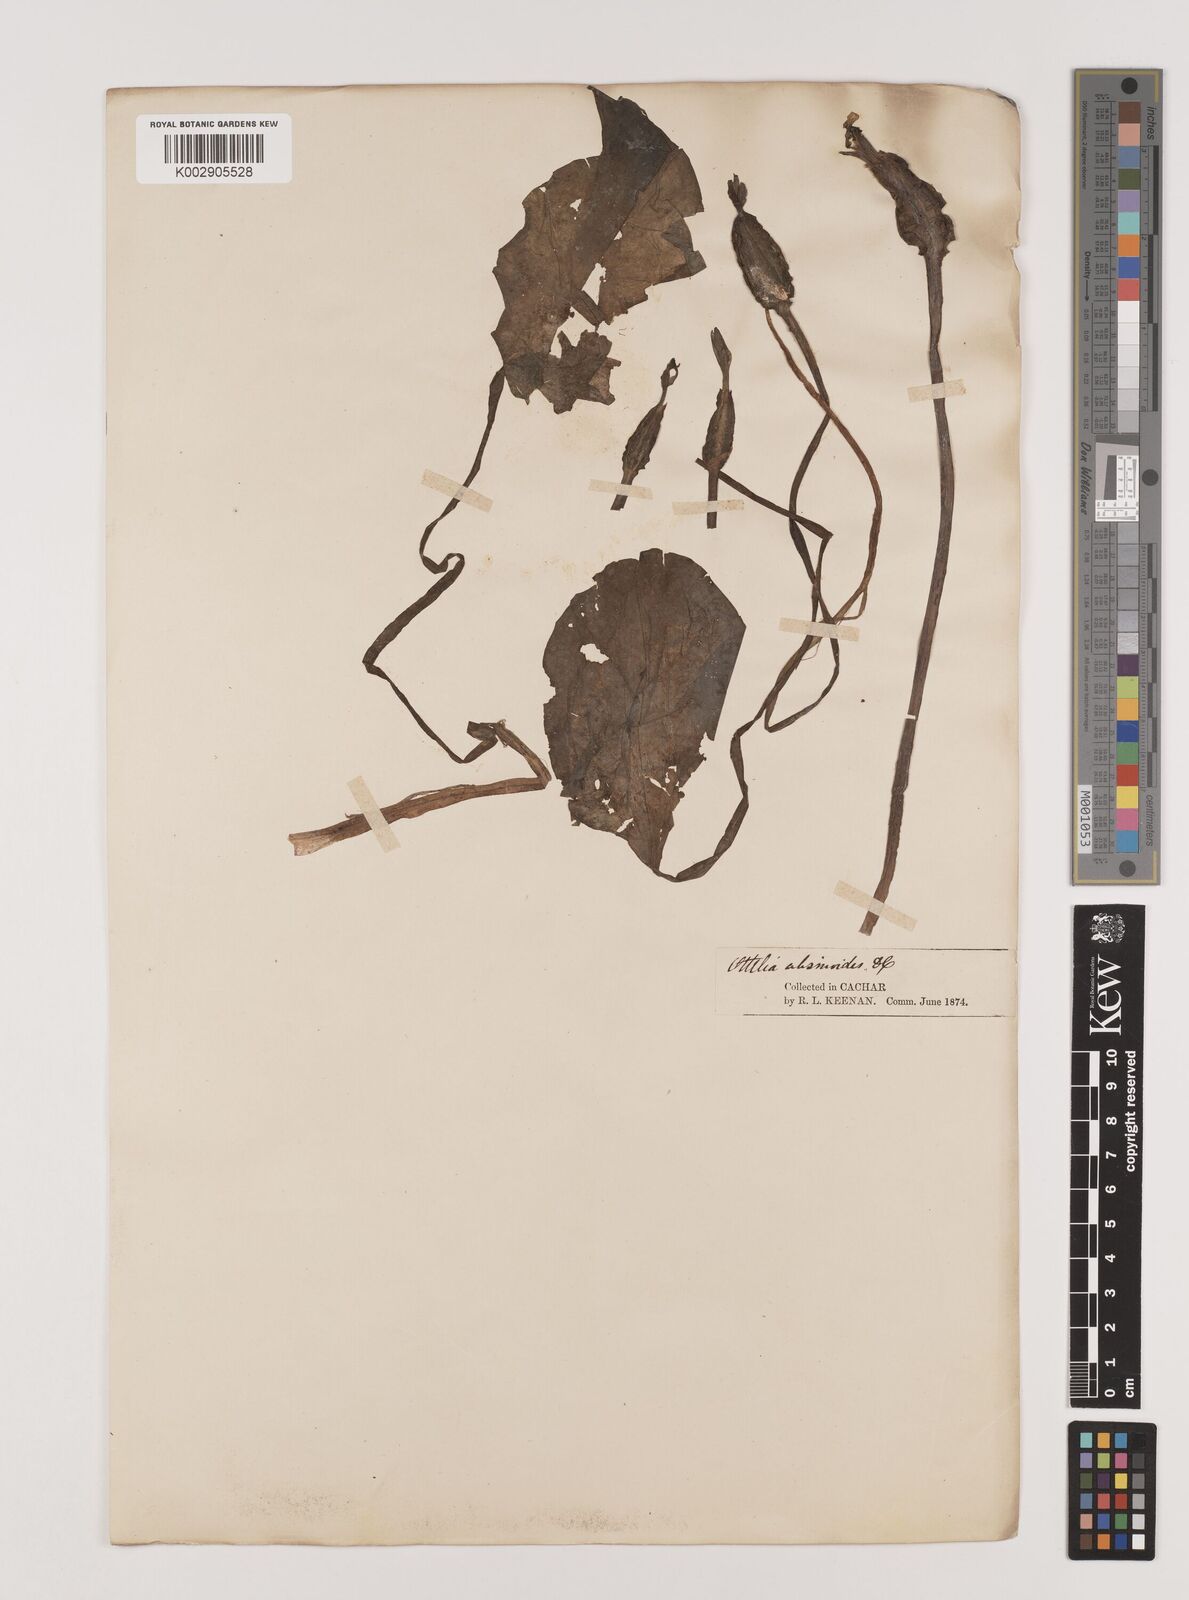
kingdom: Plantae
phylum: Tracheophyta
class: Liliopsida
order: Alismatales
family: Hydrocharitaceae
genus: Ottelia
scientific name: Ottelia alismoides
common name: Duck-lettuce
